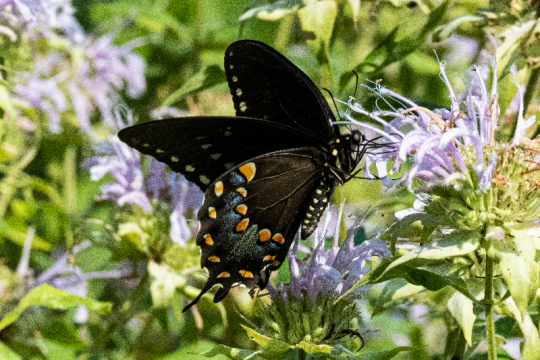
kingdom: Animalia
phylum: Arthropoda
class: Insecta
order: Lepidoptera
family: Papilionidae
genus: Pterourus
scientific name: Pterourus troilus
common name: Spicebush Swallowtail
